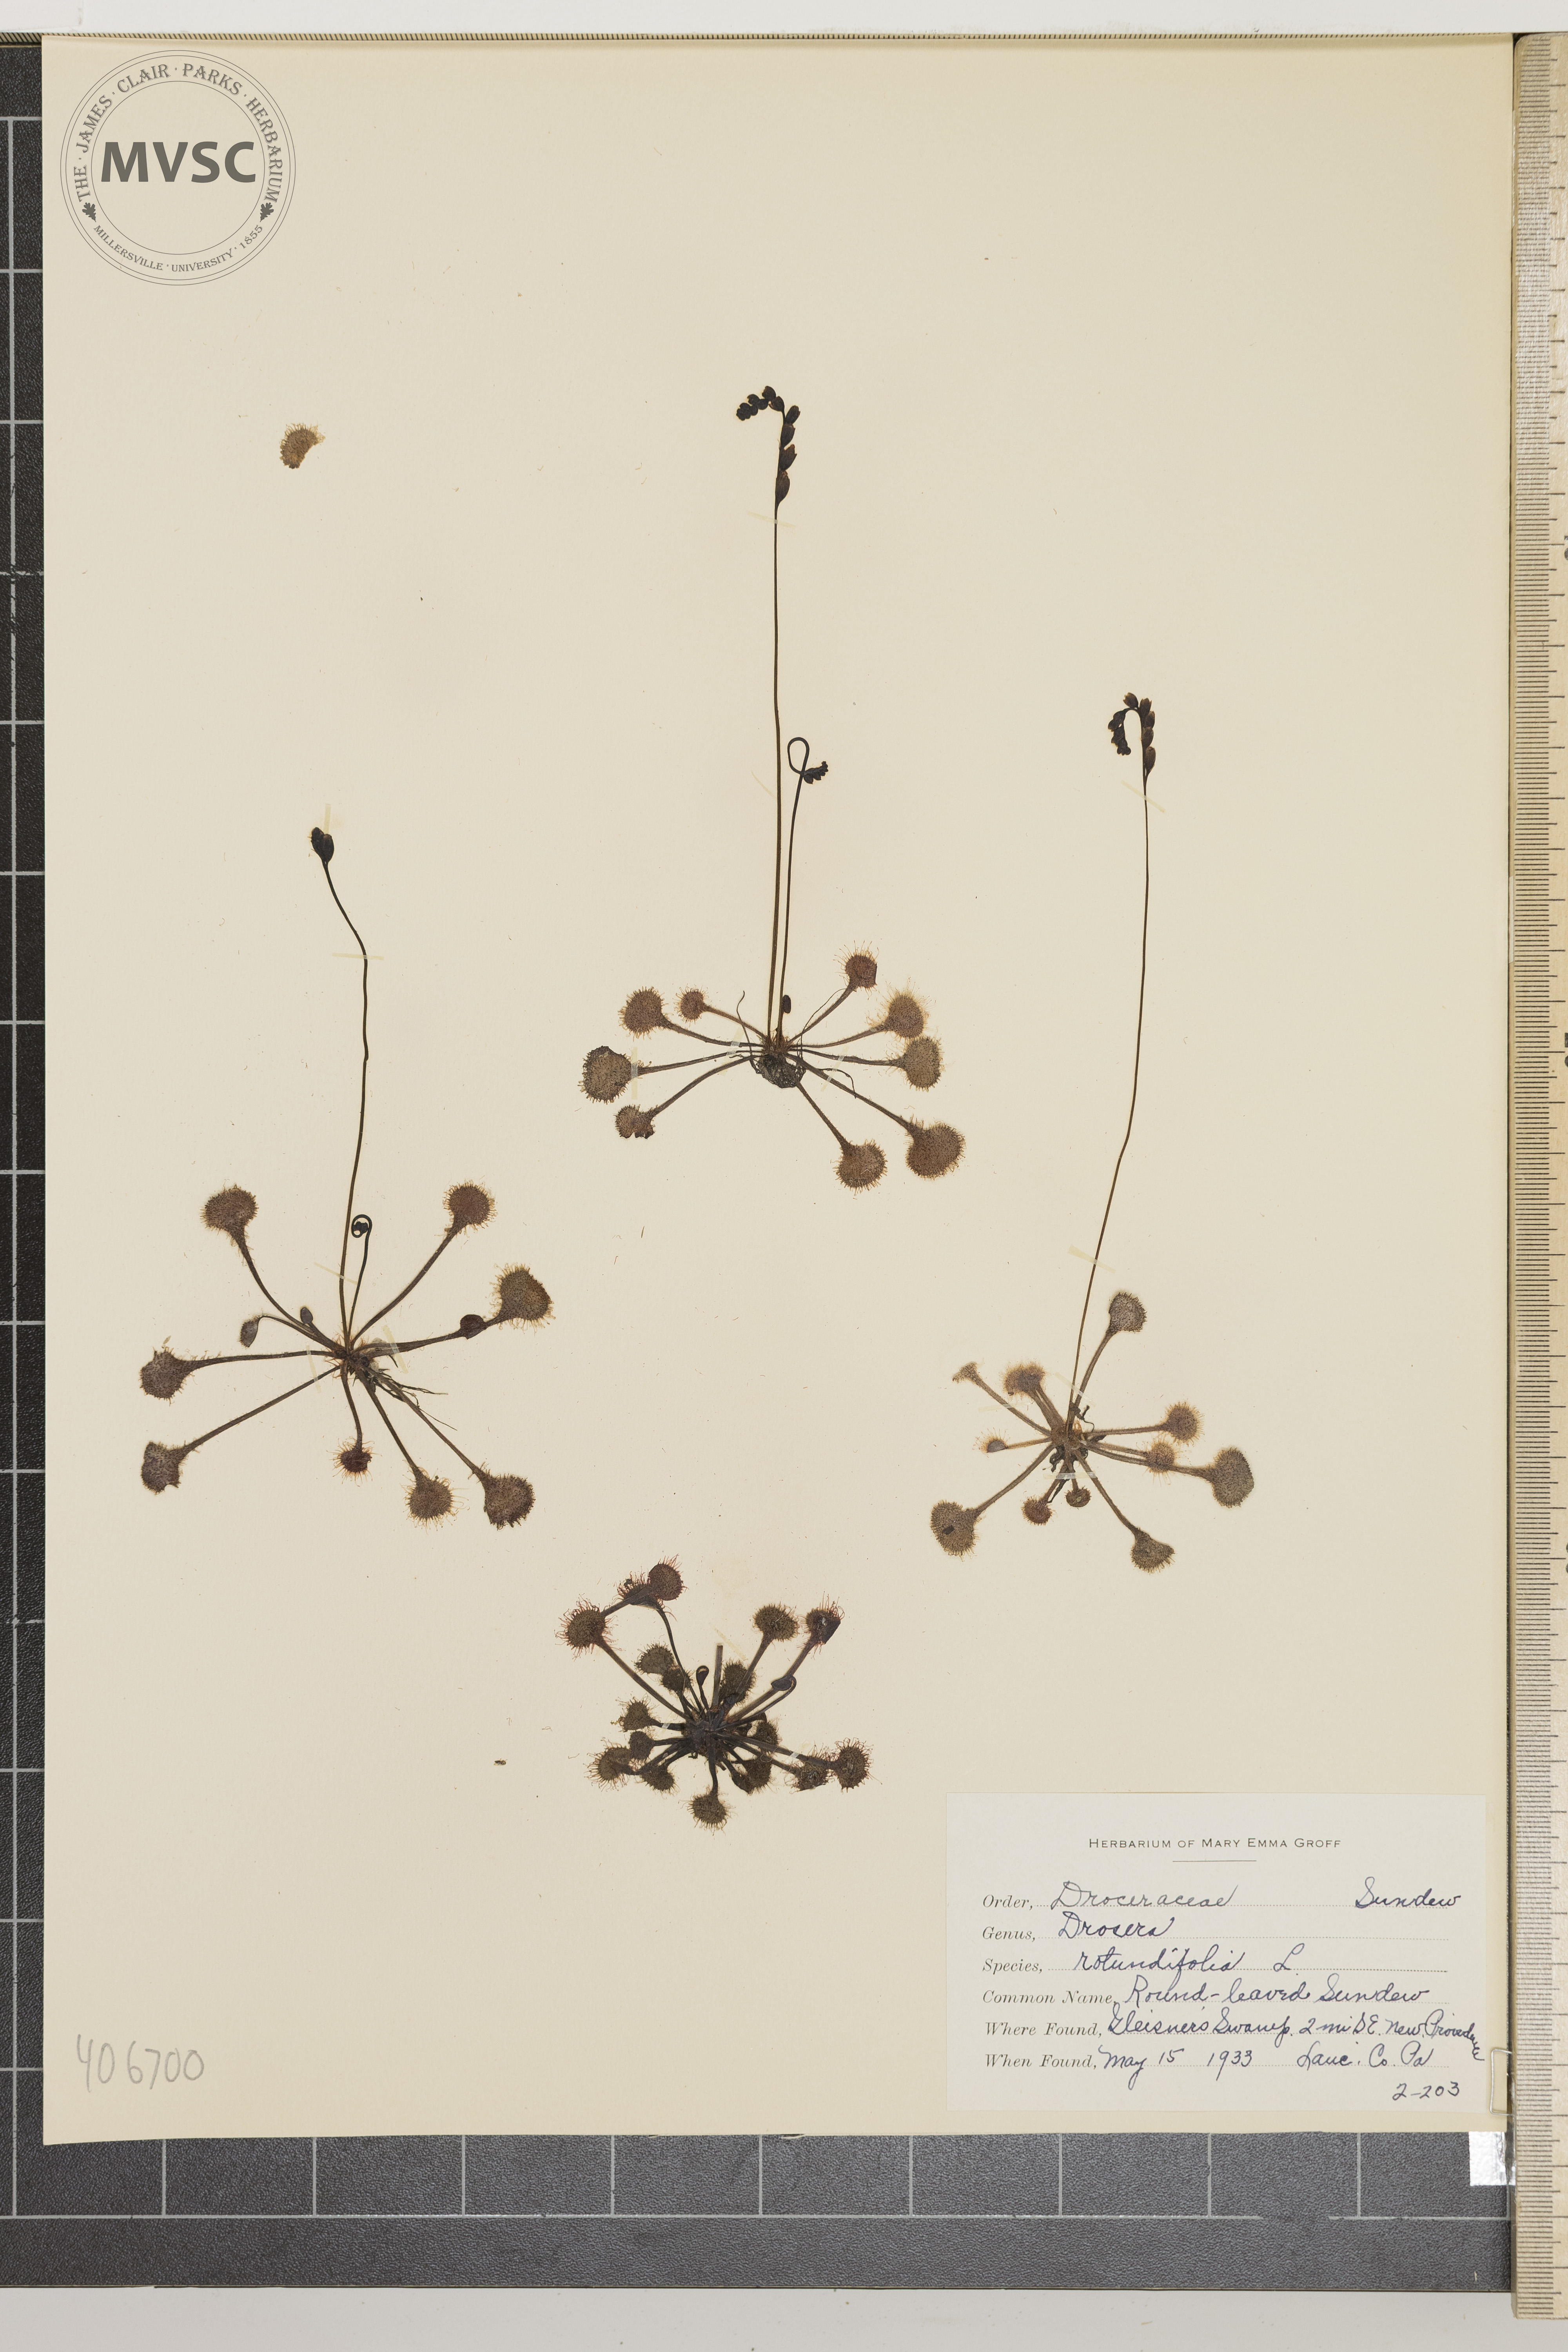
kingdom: Plantae
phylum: Tracheophyta
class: Magnoliopsida
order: Caryophyllales
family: Droseraceae
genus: Drosera
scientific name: Drosera rotundifolia
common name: Round-leaved Sundew
